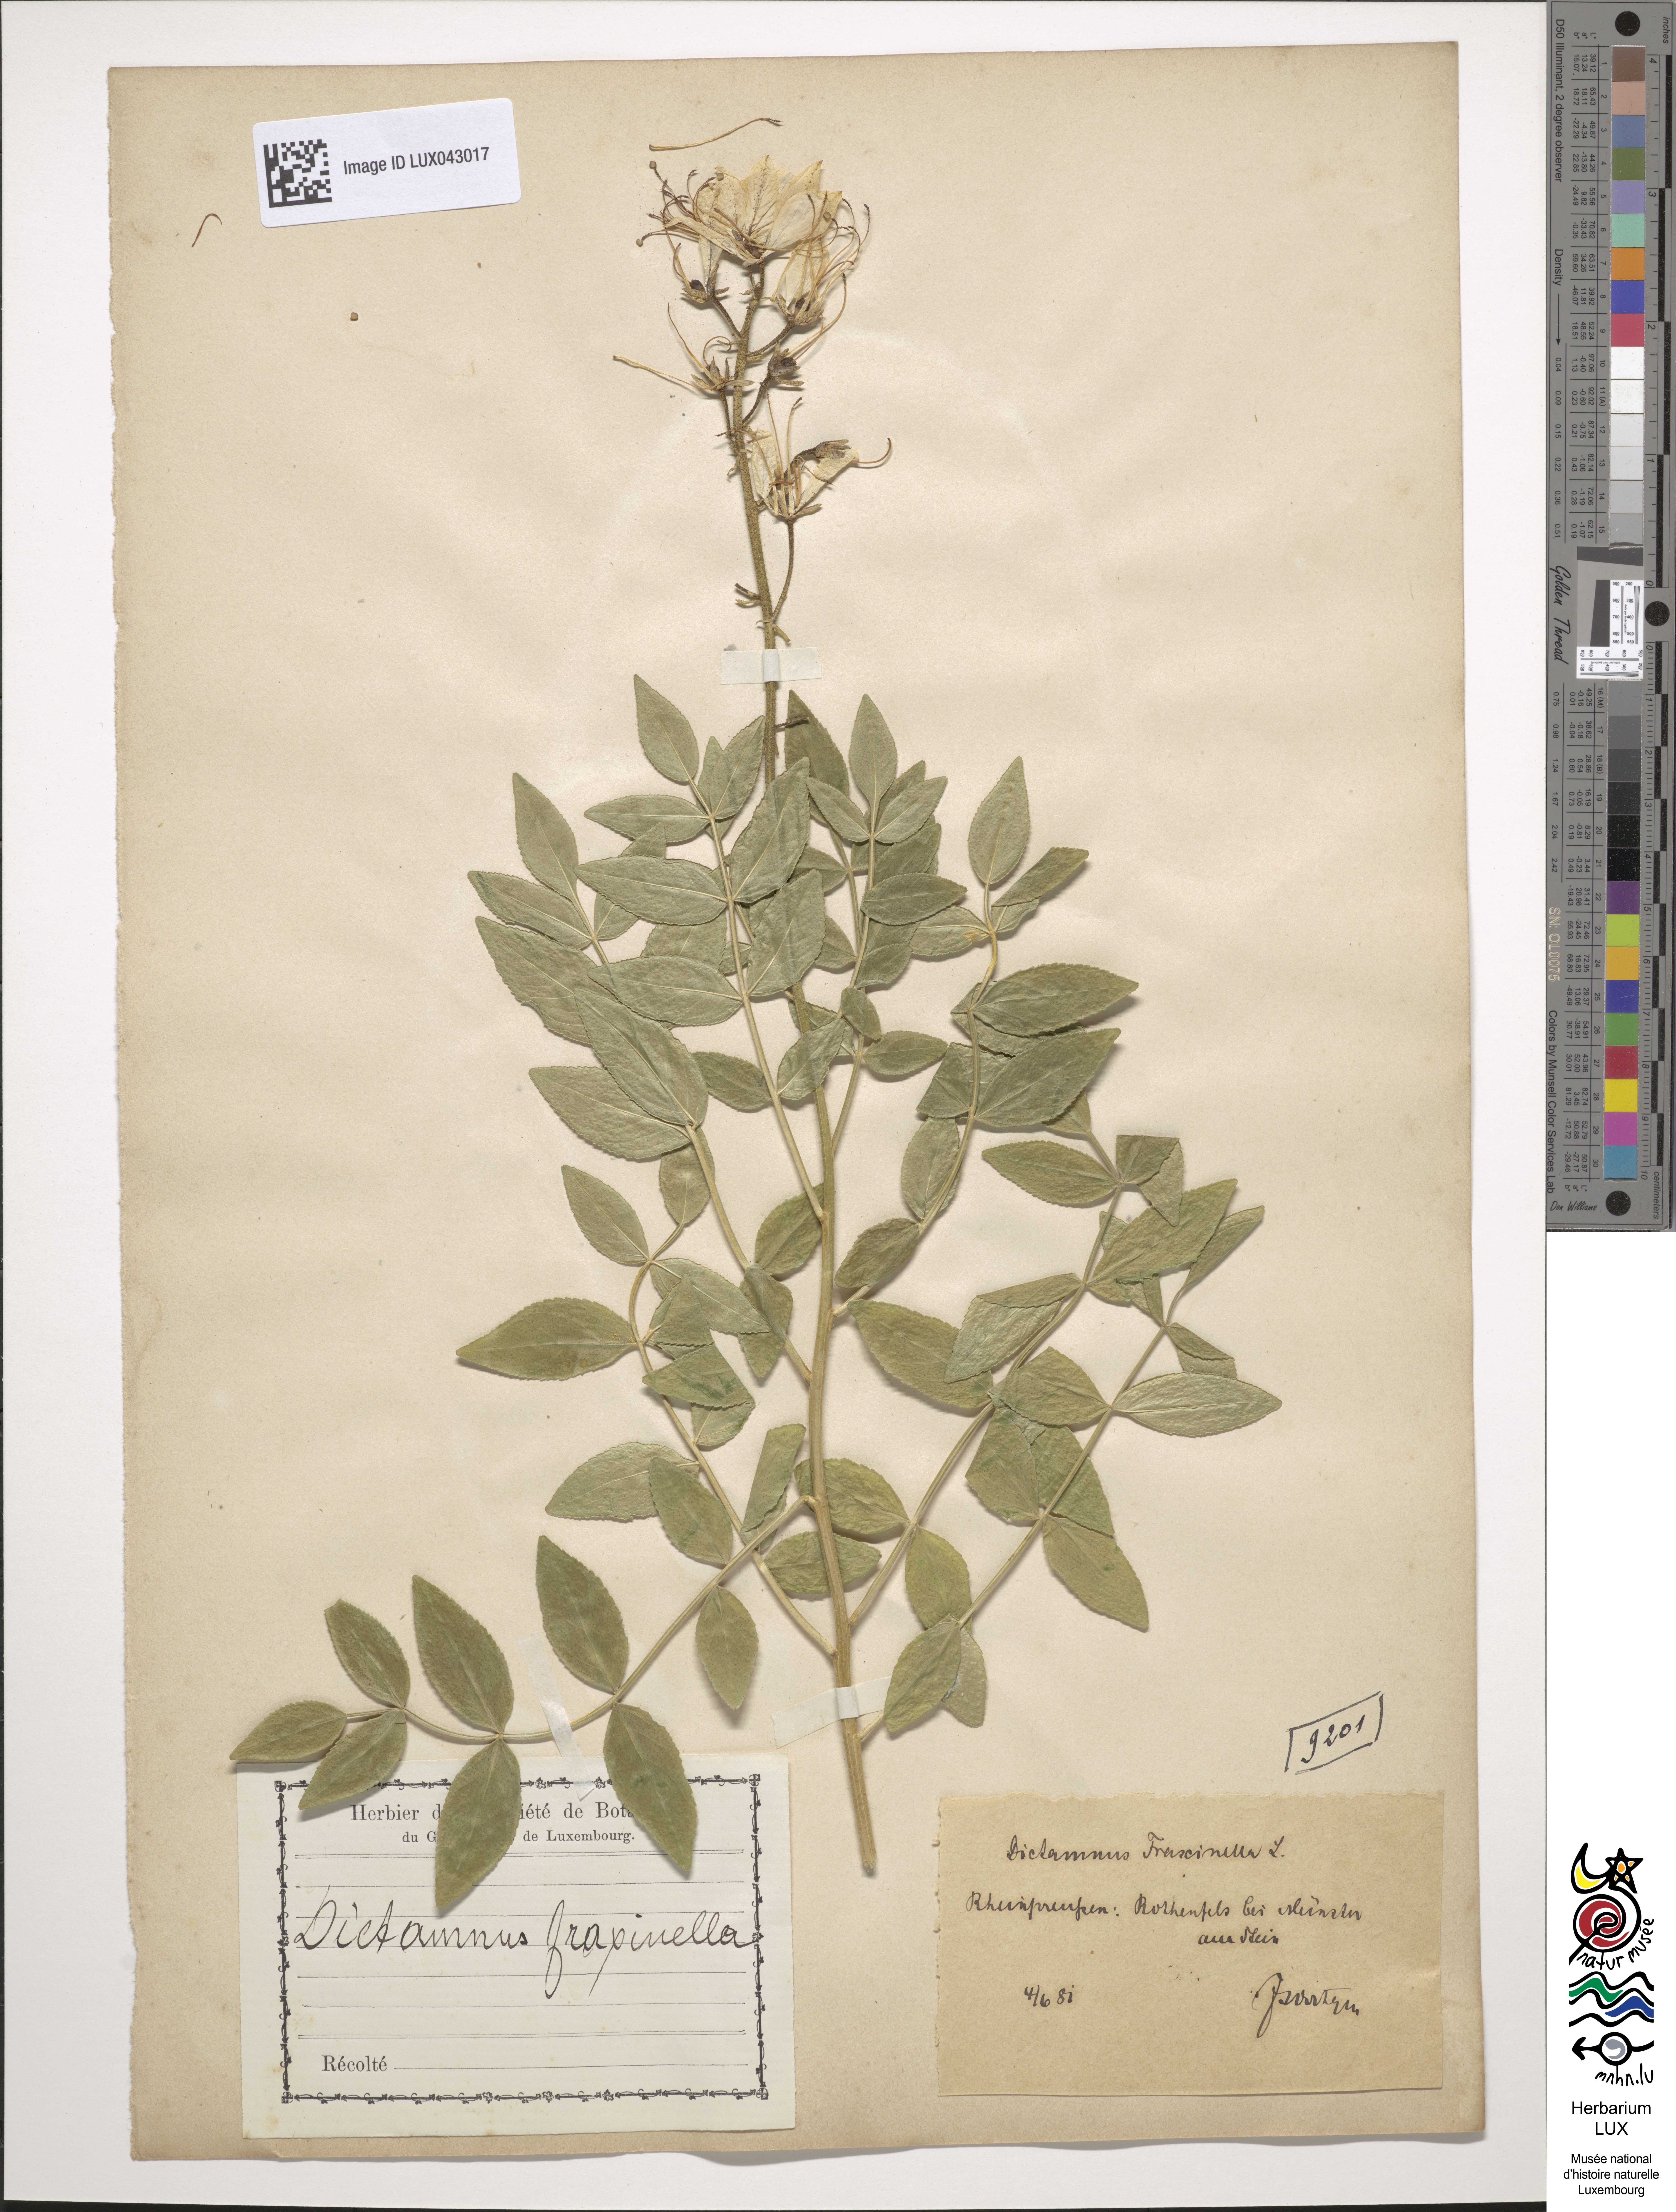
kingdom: Plantae
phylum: Tracheophyta
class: Magnoliopsida
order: Sapindales
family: Rutaceae
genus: Dictamnus
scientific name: Dictamnus albus
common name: Gasplant
